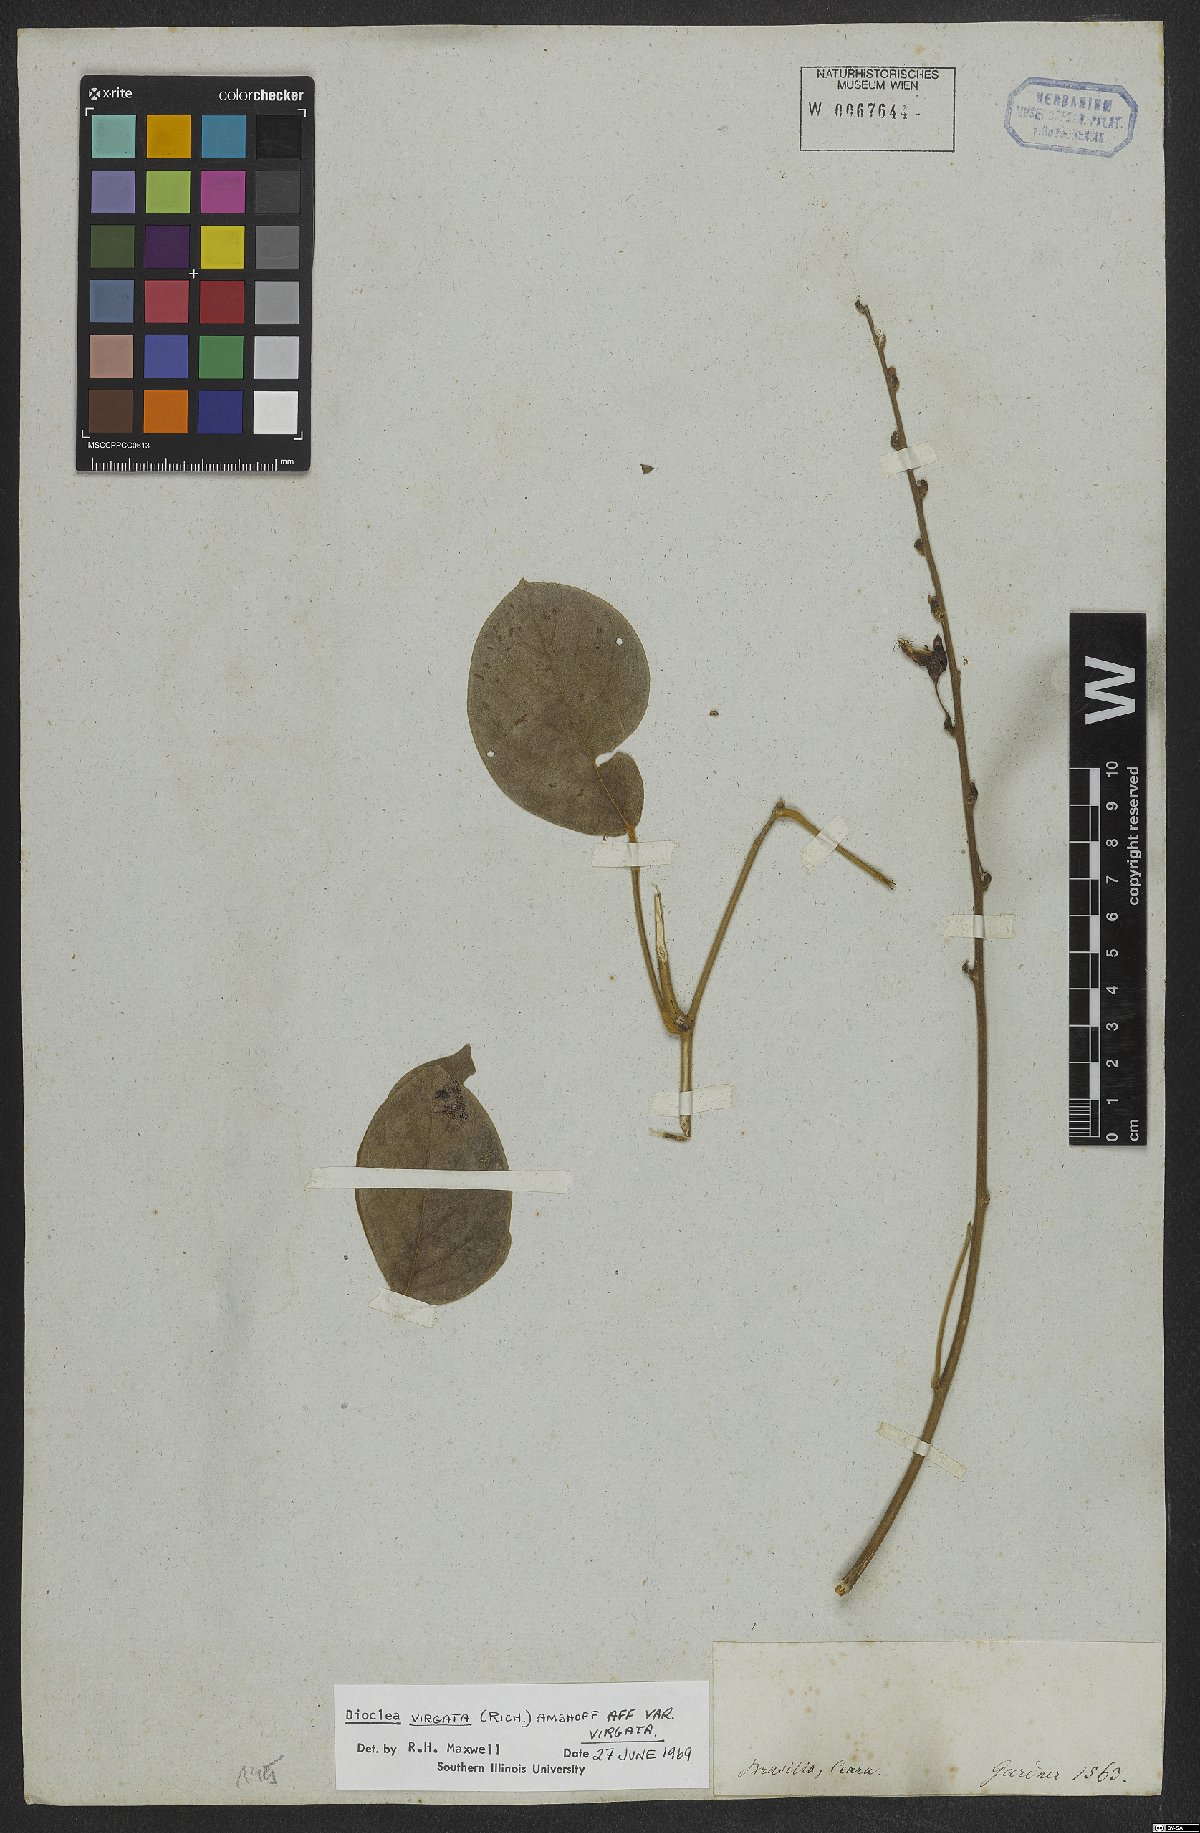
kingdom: Plantae
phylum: Tracheophyta
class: Magnoliopsida
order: Fabales
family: Fabaceae
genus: Dioclea
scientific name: Dioclea virgata
